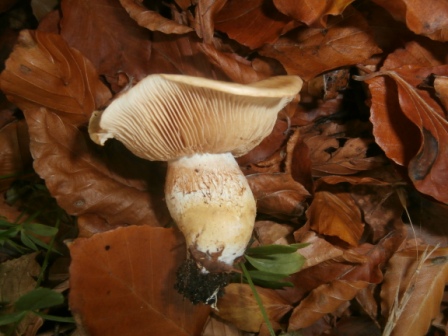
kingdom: Fungi
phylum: Basidiomycota
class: Agaricomycetes
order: Agaricales
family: Cortinariaceae
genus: Phlegmacium
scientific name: Phlegmacium cliduchus
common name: majs-slørhat
